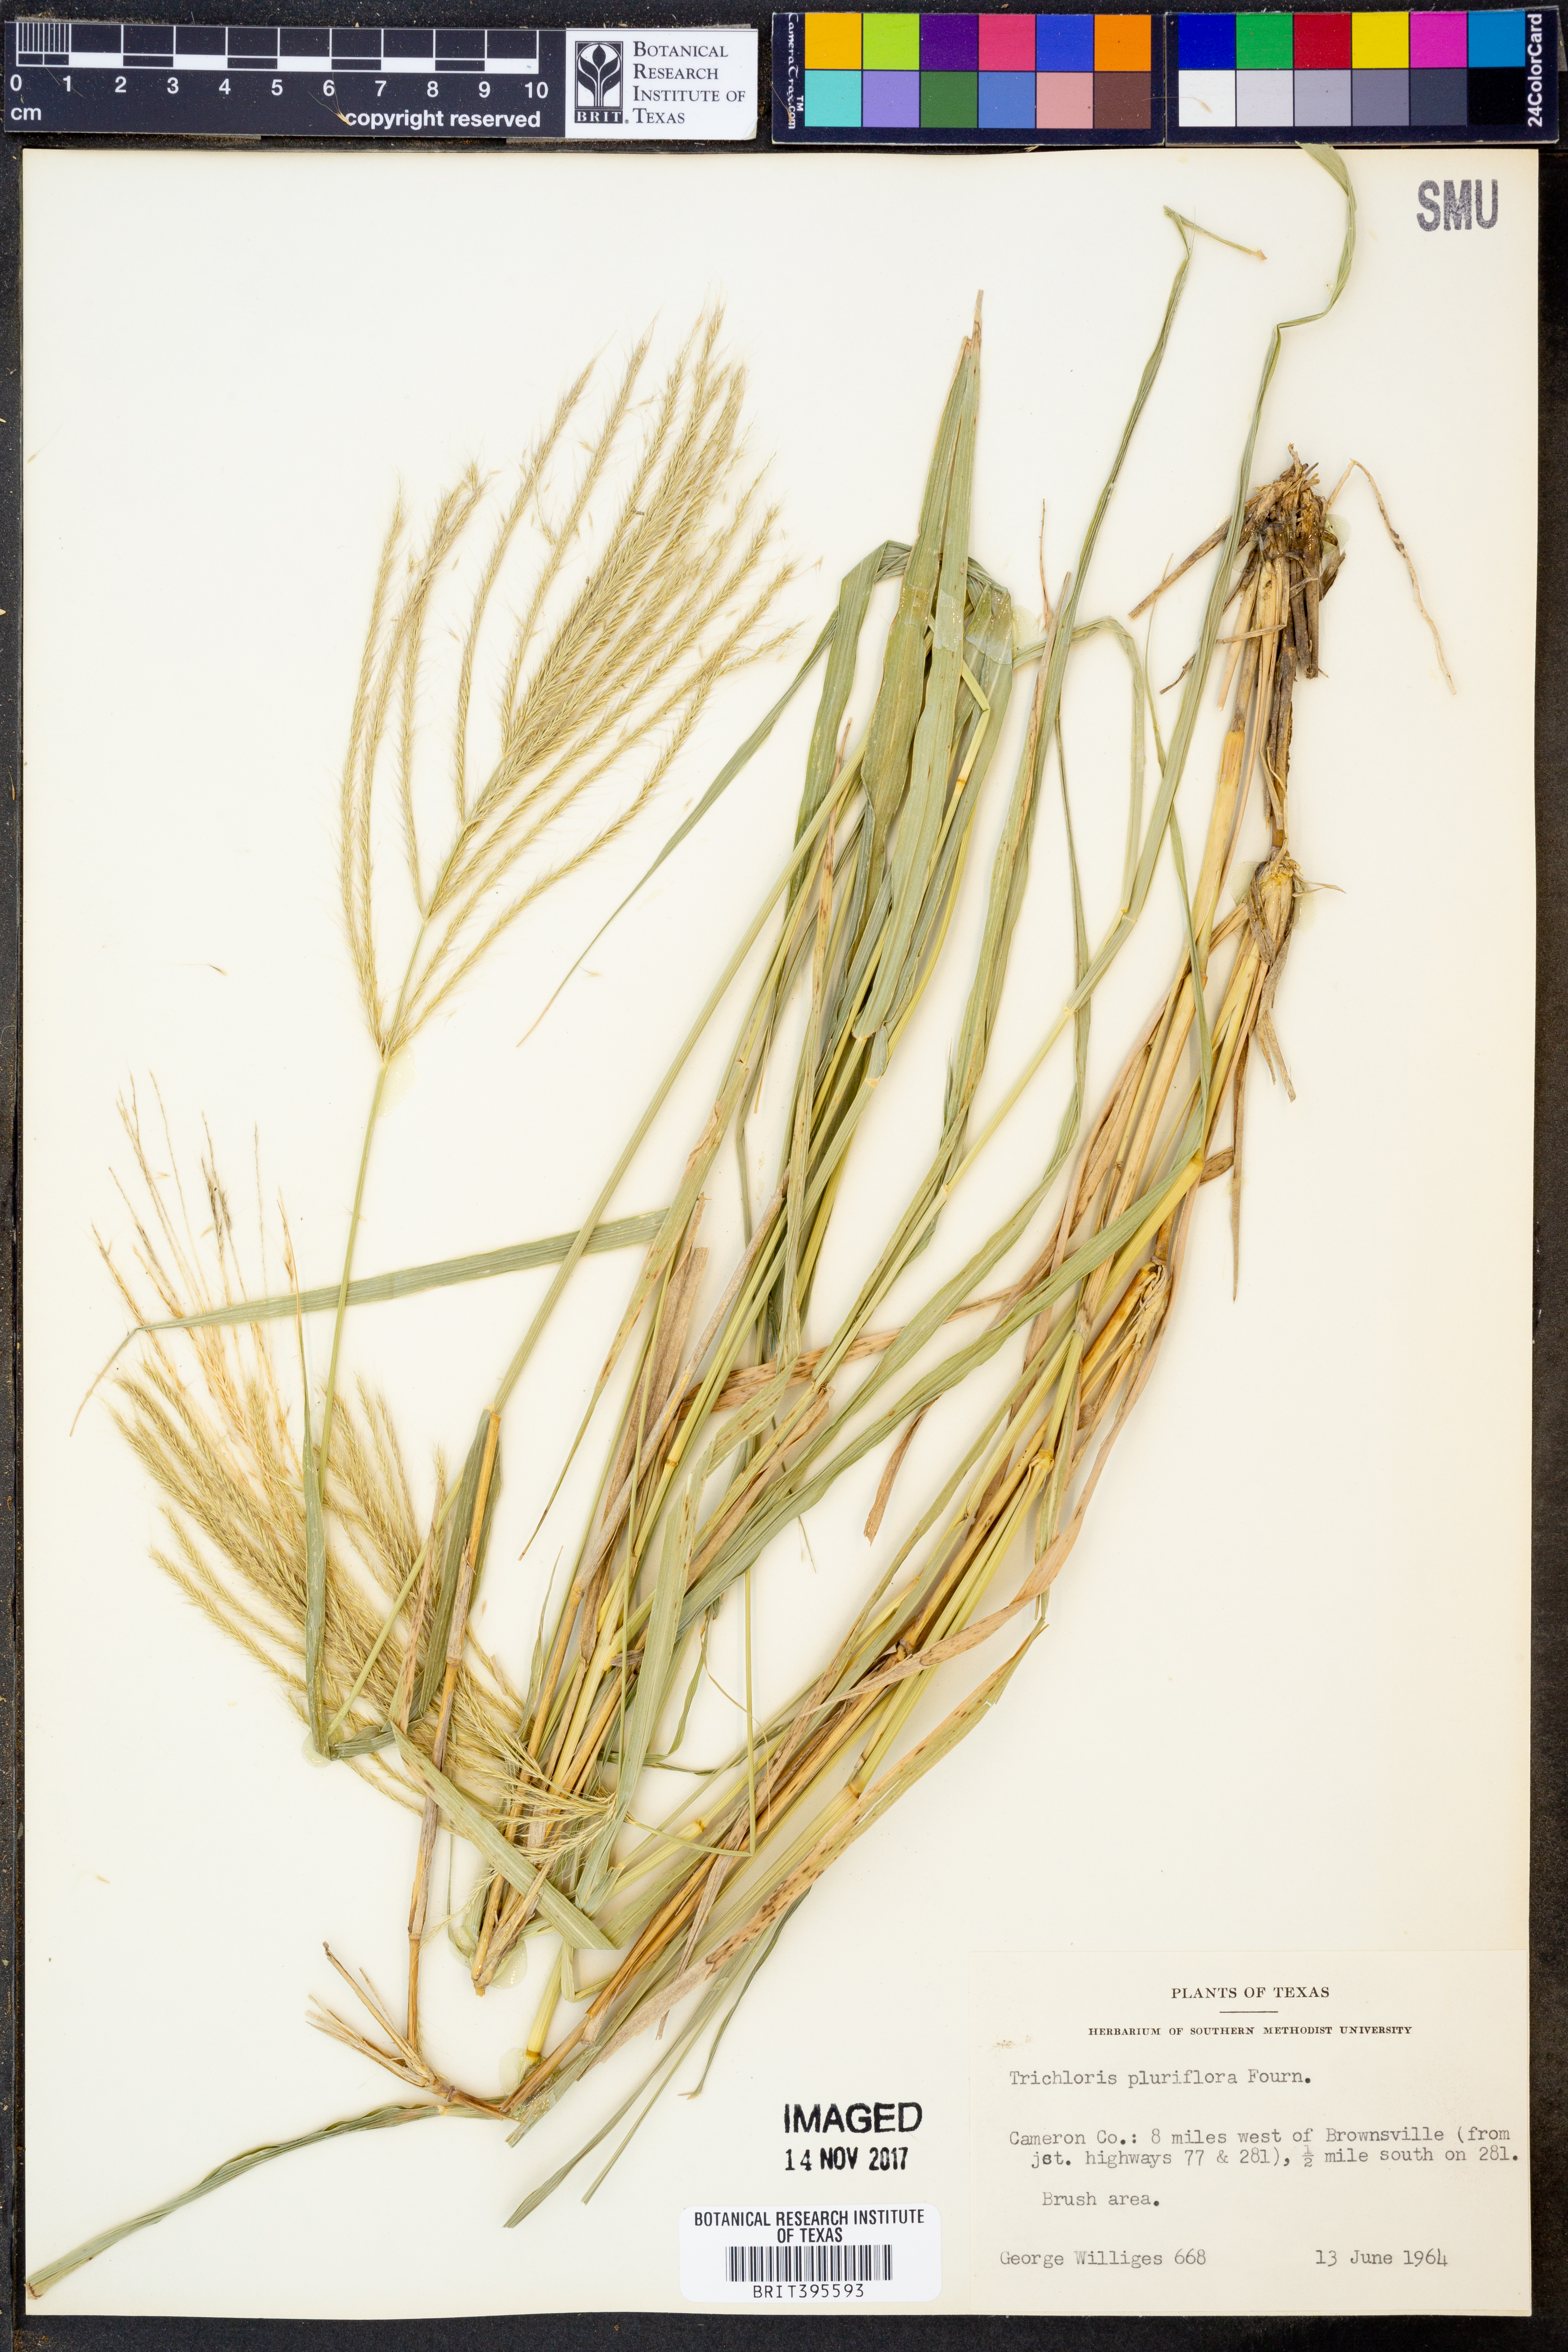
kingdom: Plantae
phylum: Tracheophyta
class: Liliopsida
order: Poales
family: Poaceae
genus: Leptochloa
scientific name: Leptochloa pluriflora
